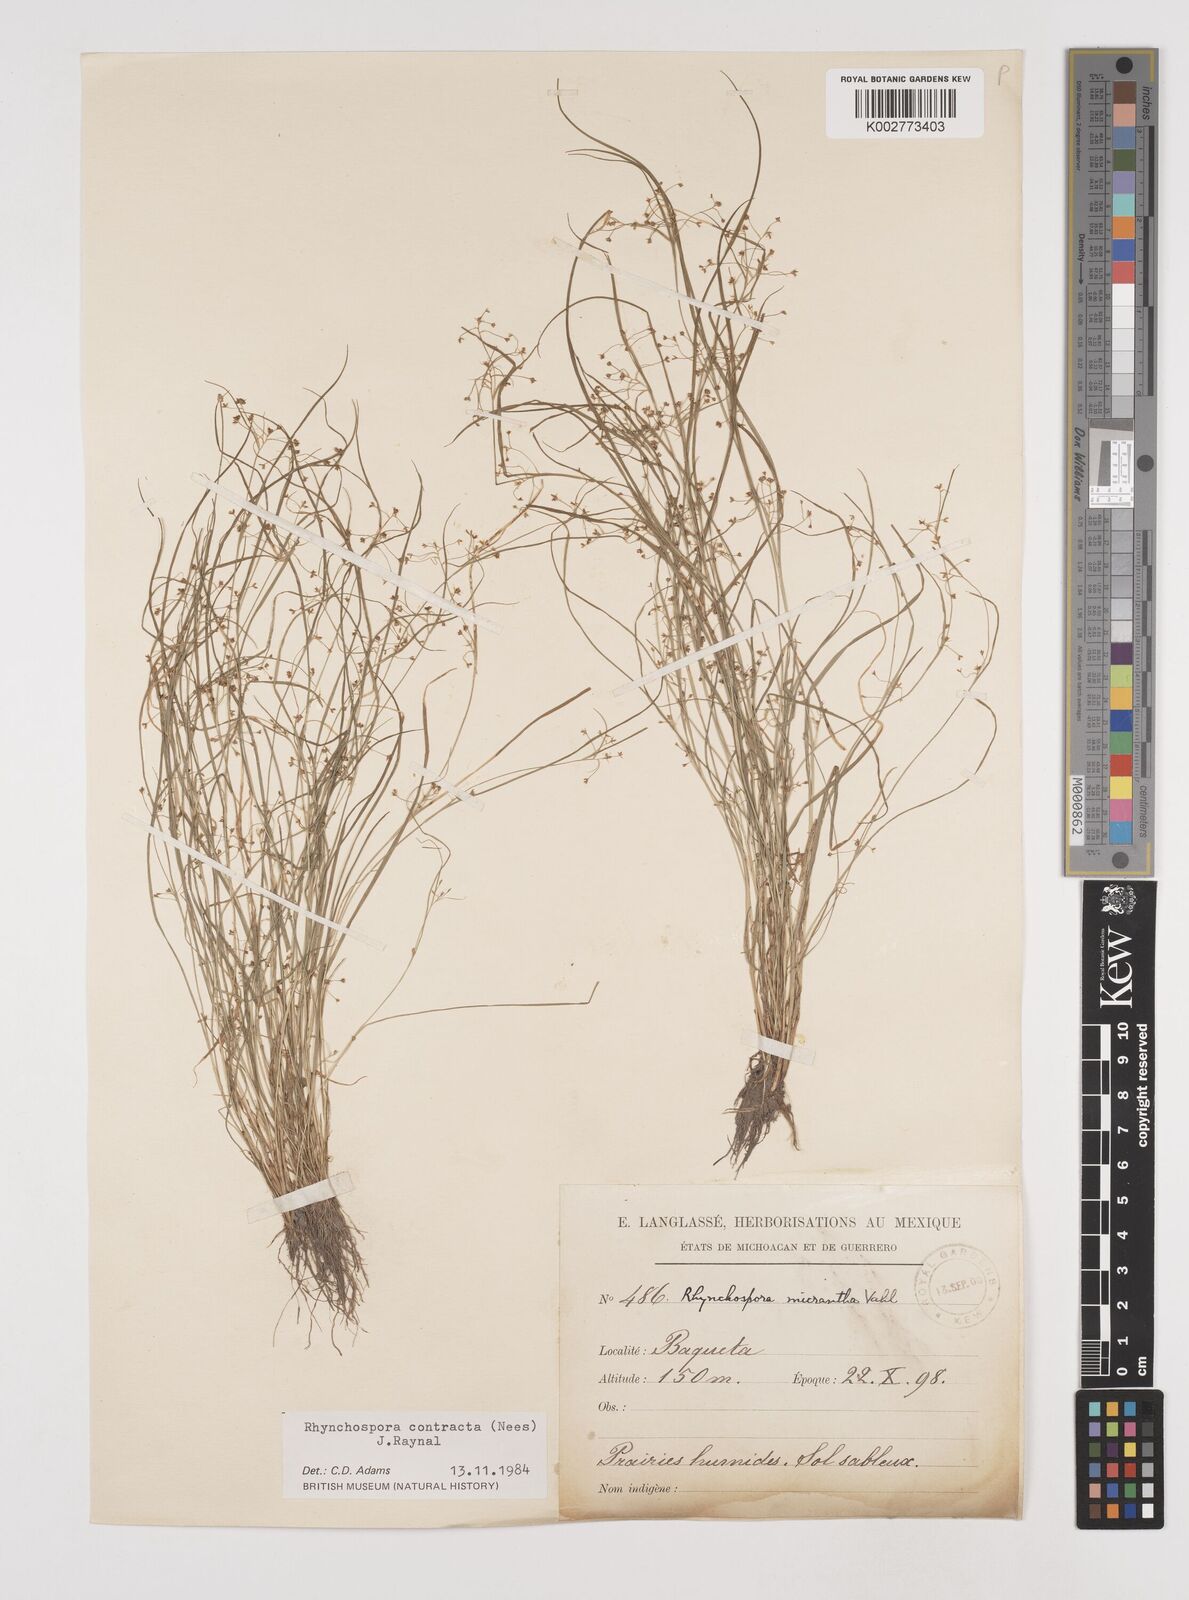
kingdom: Plantae
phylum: Tracheophyta
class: Liliopsida
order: Poales
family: Cyperaceae
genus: Rhynchospora
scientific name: Rhynchospora contracta
